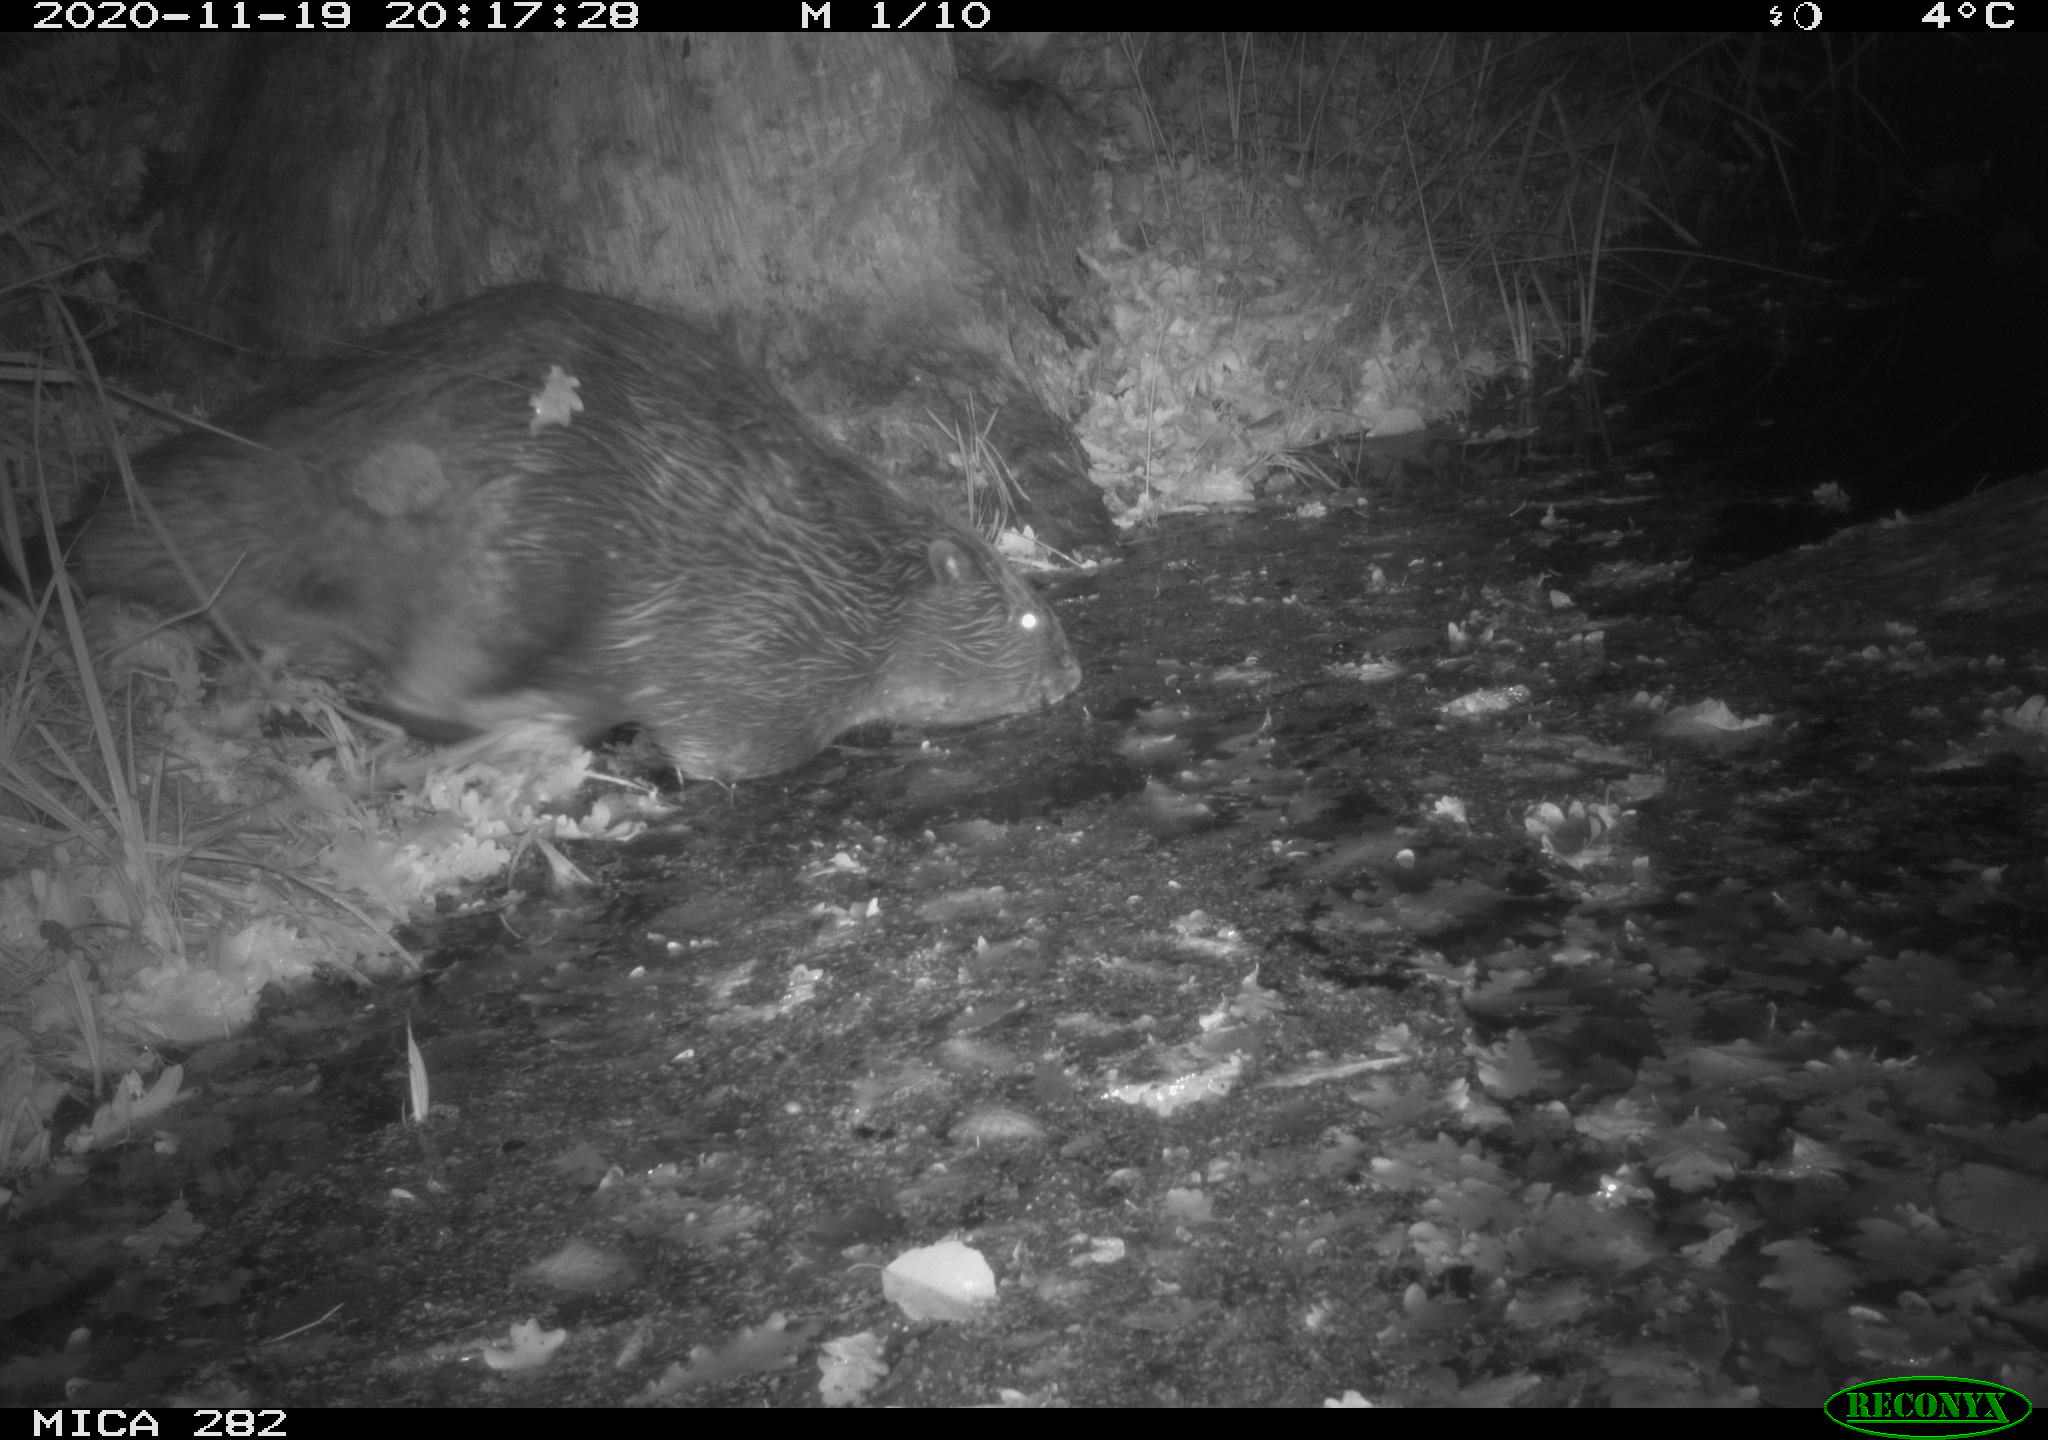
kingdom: Animalia
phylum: Chordata
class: Mammalia
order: Rodentia
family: Castoridae
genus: Castor
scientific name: Castor fiber
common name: Eurasian beaver
